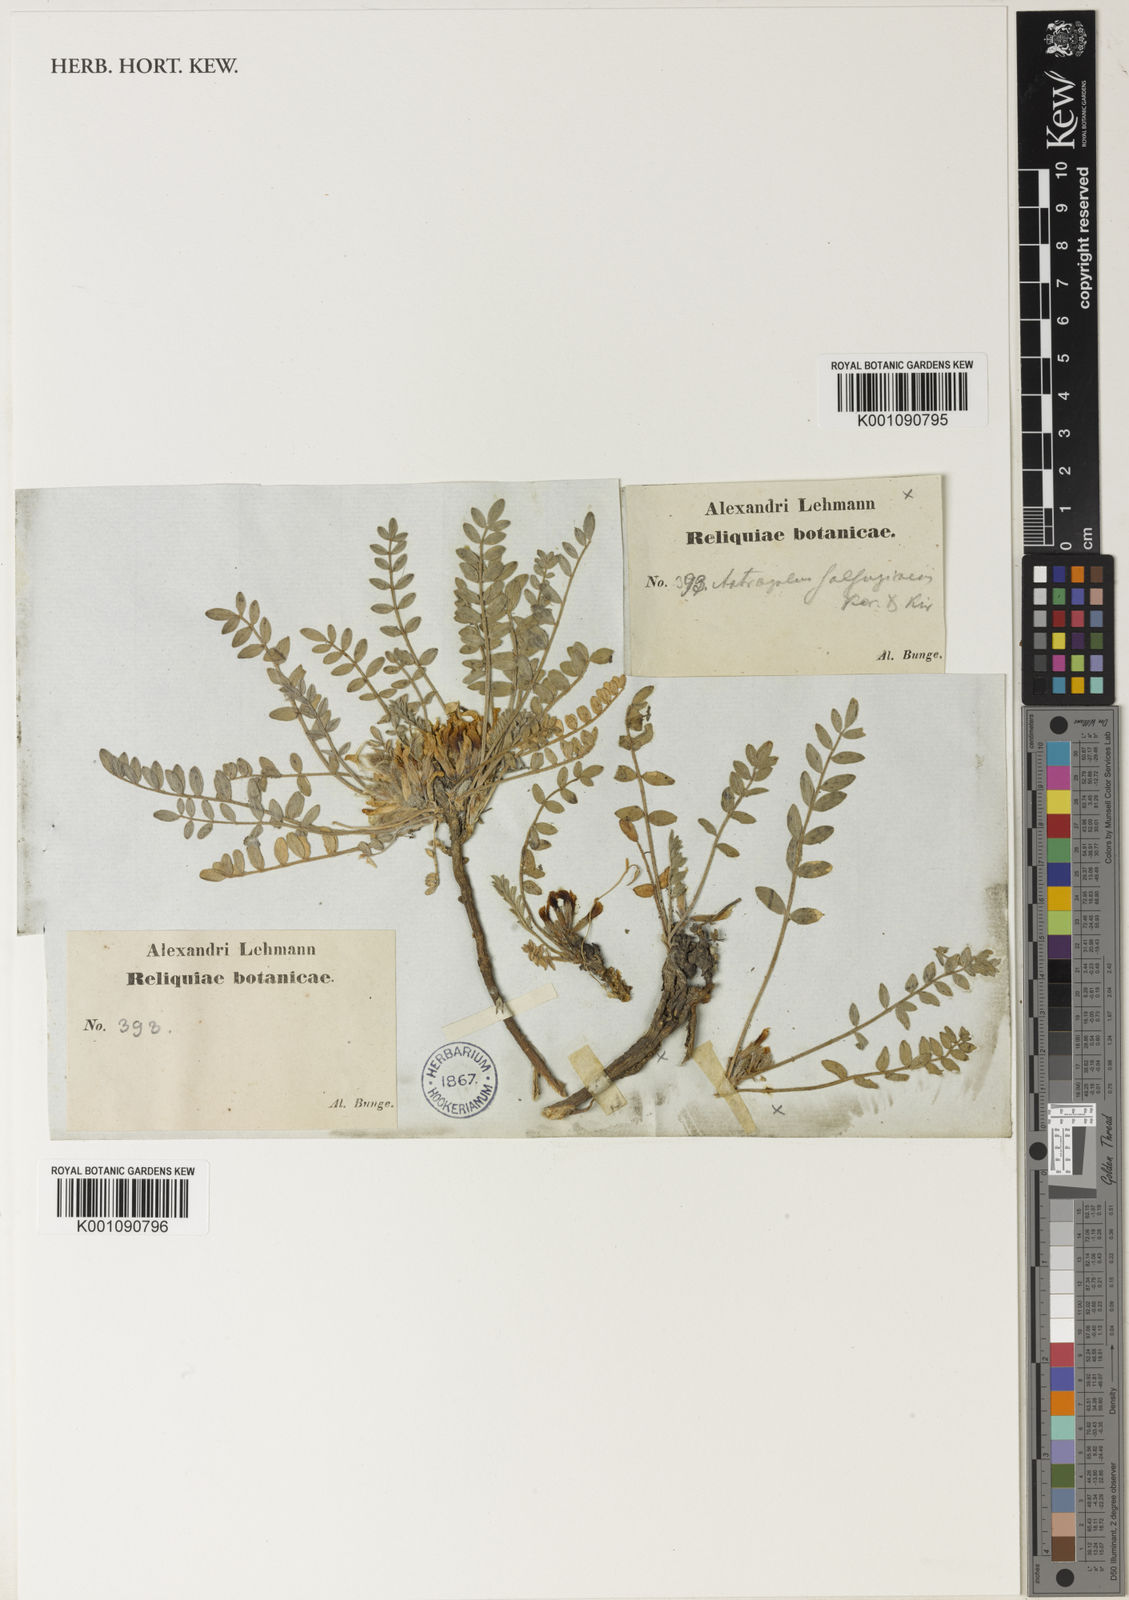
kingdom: Plantae
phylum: Tracheophyta
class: Magnoliopsida
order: Fabales
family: Fabaceae
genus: Astragalus
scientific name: Astragalus
